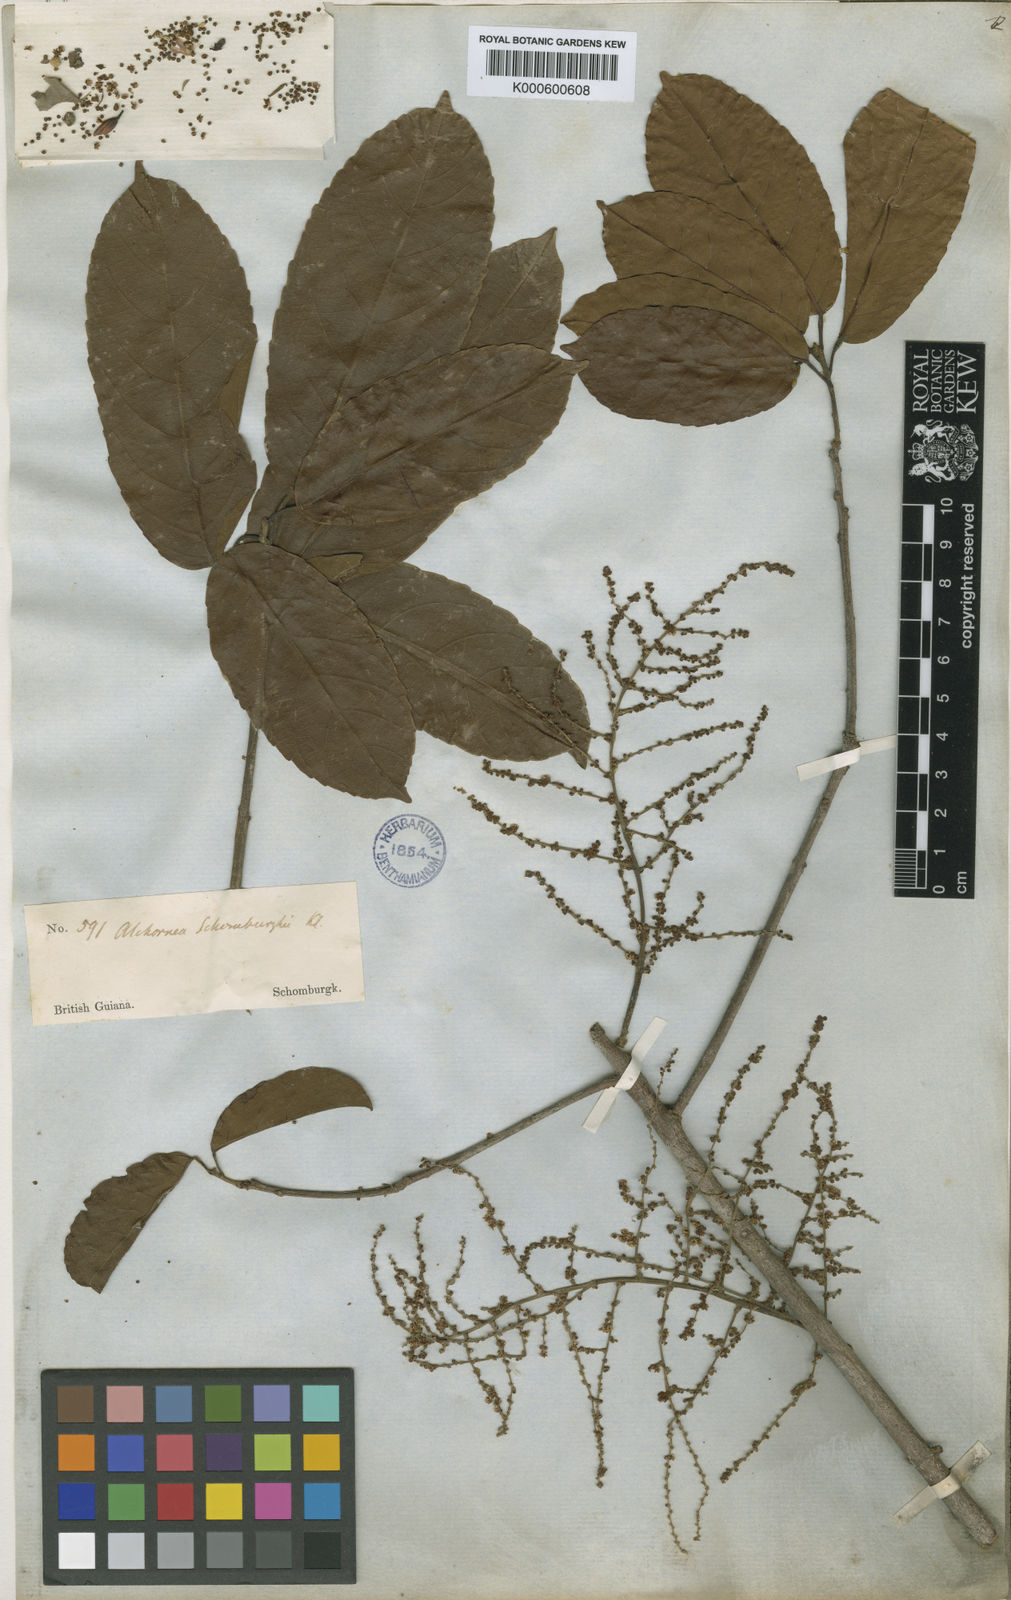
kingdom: Plantae
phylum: Tracheophyta
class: Magnoliopsida
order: Malpighiales
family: Euphorbiaceae
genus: Alchornea
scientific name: Alchornea discolor
